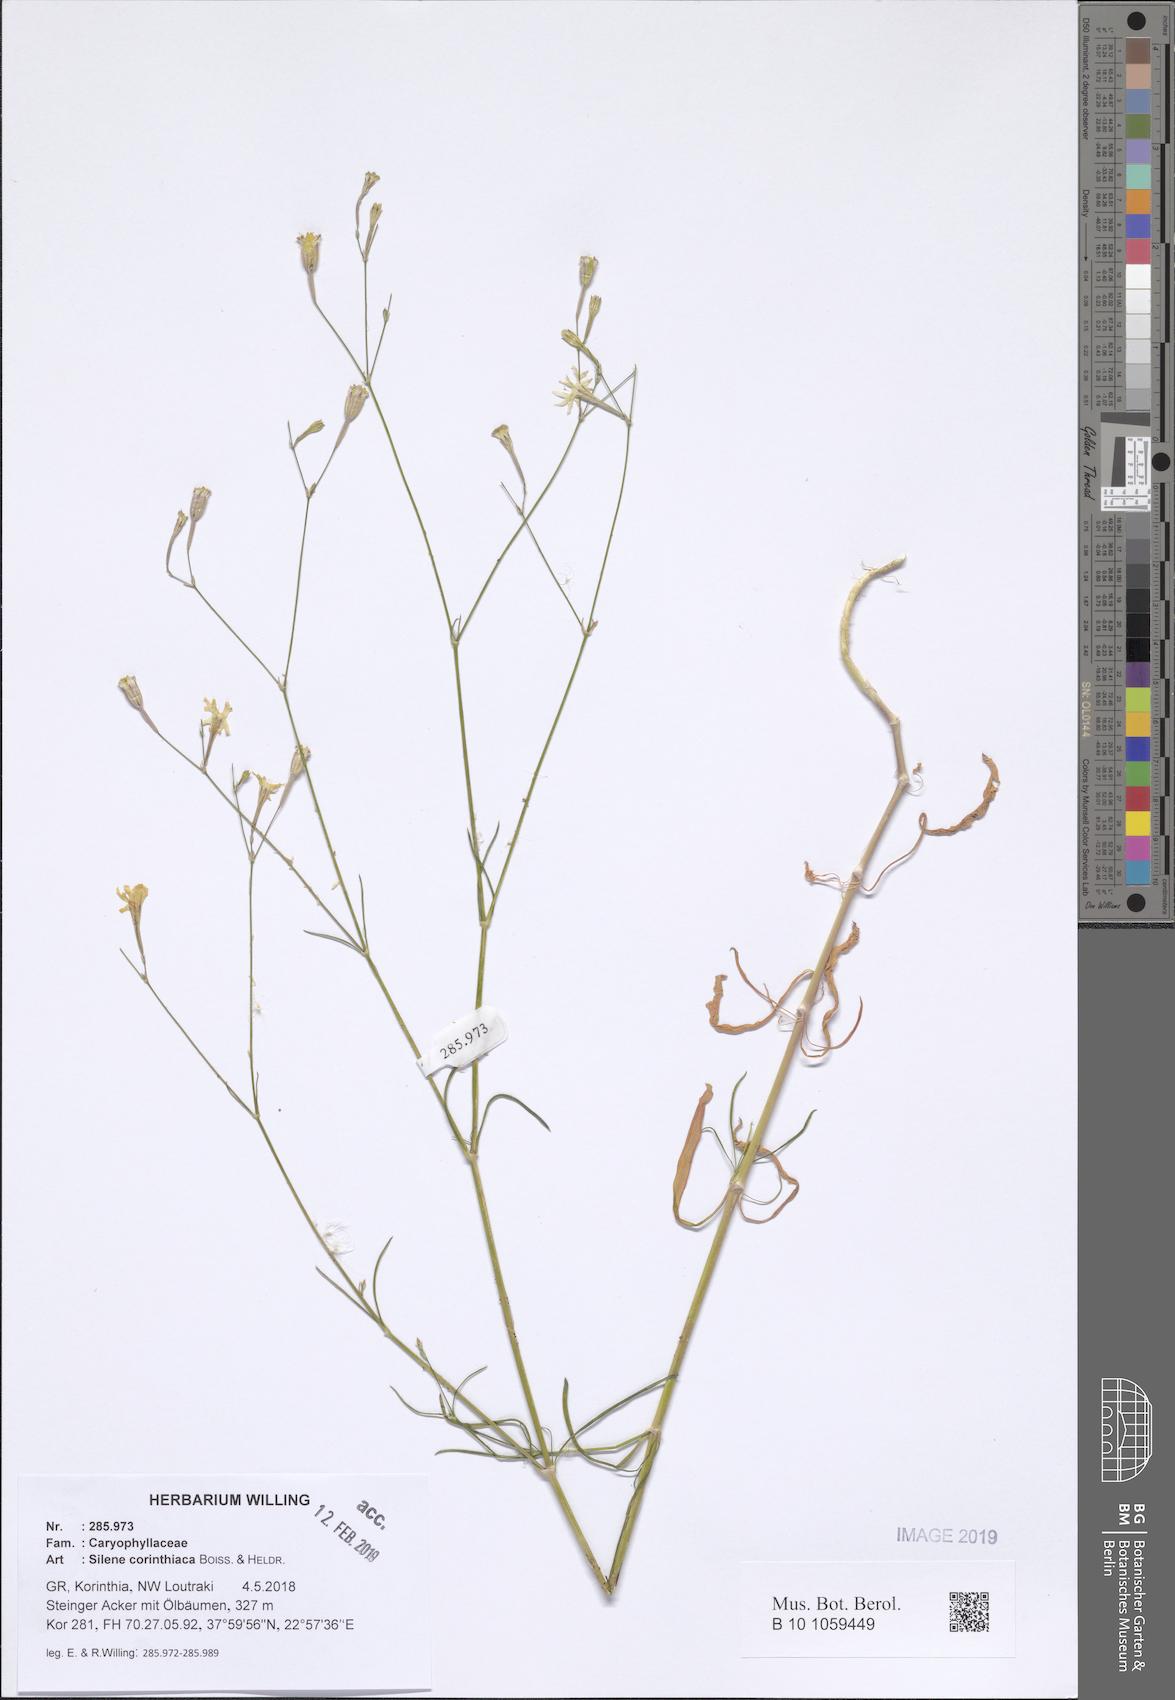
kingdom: Plantae
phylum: Tracheophyta
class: Magnoliopsida
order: Caryophyllales
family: Caryophyllaceae
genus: Silene
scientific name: Silene corinthiaca
